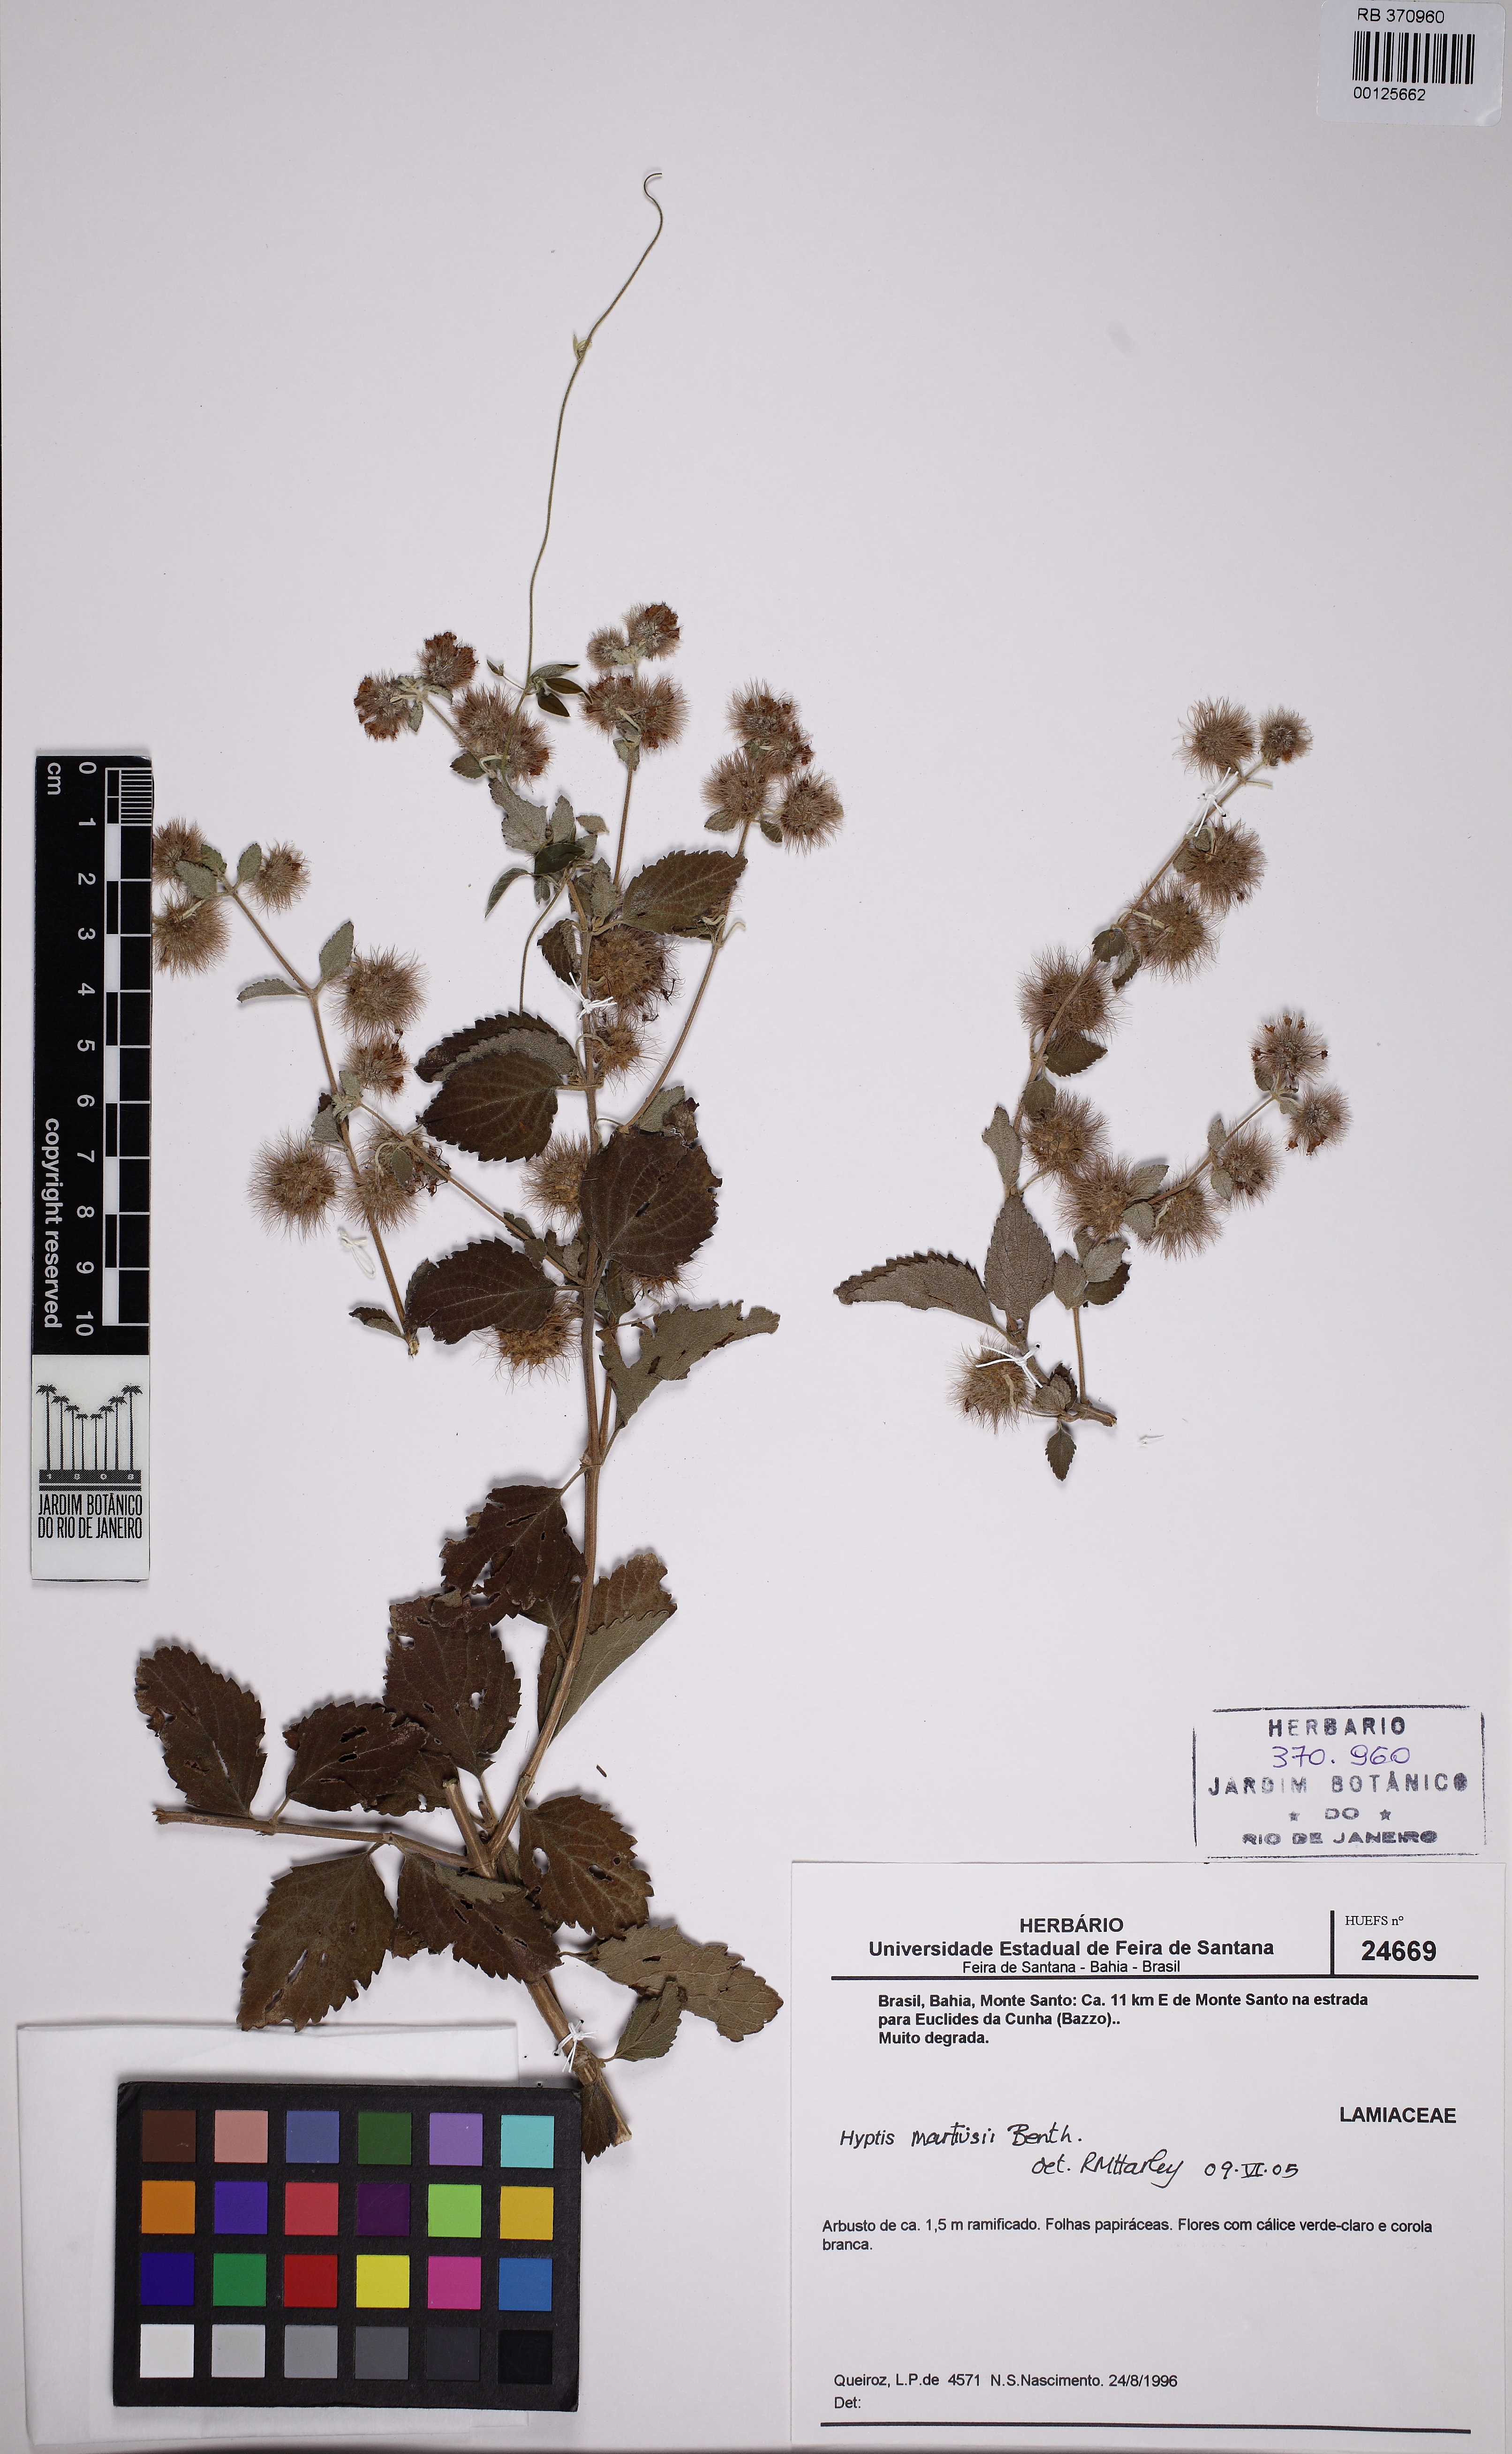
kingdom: Plantae
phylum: Tracheophyta
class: Magnoliopsida
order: Lamiales
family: Lamiaceae
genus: Medusantha
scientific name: Medusantha martiusii
